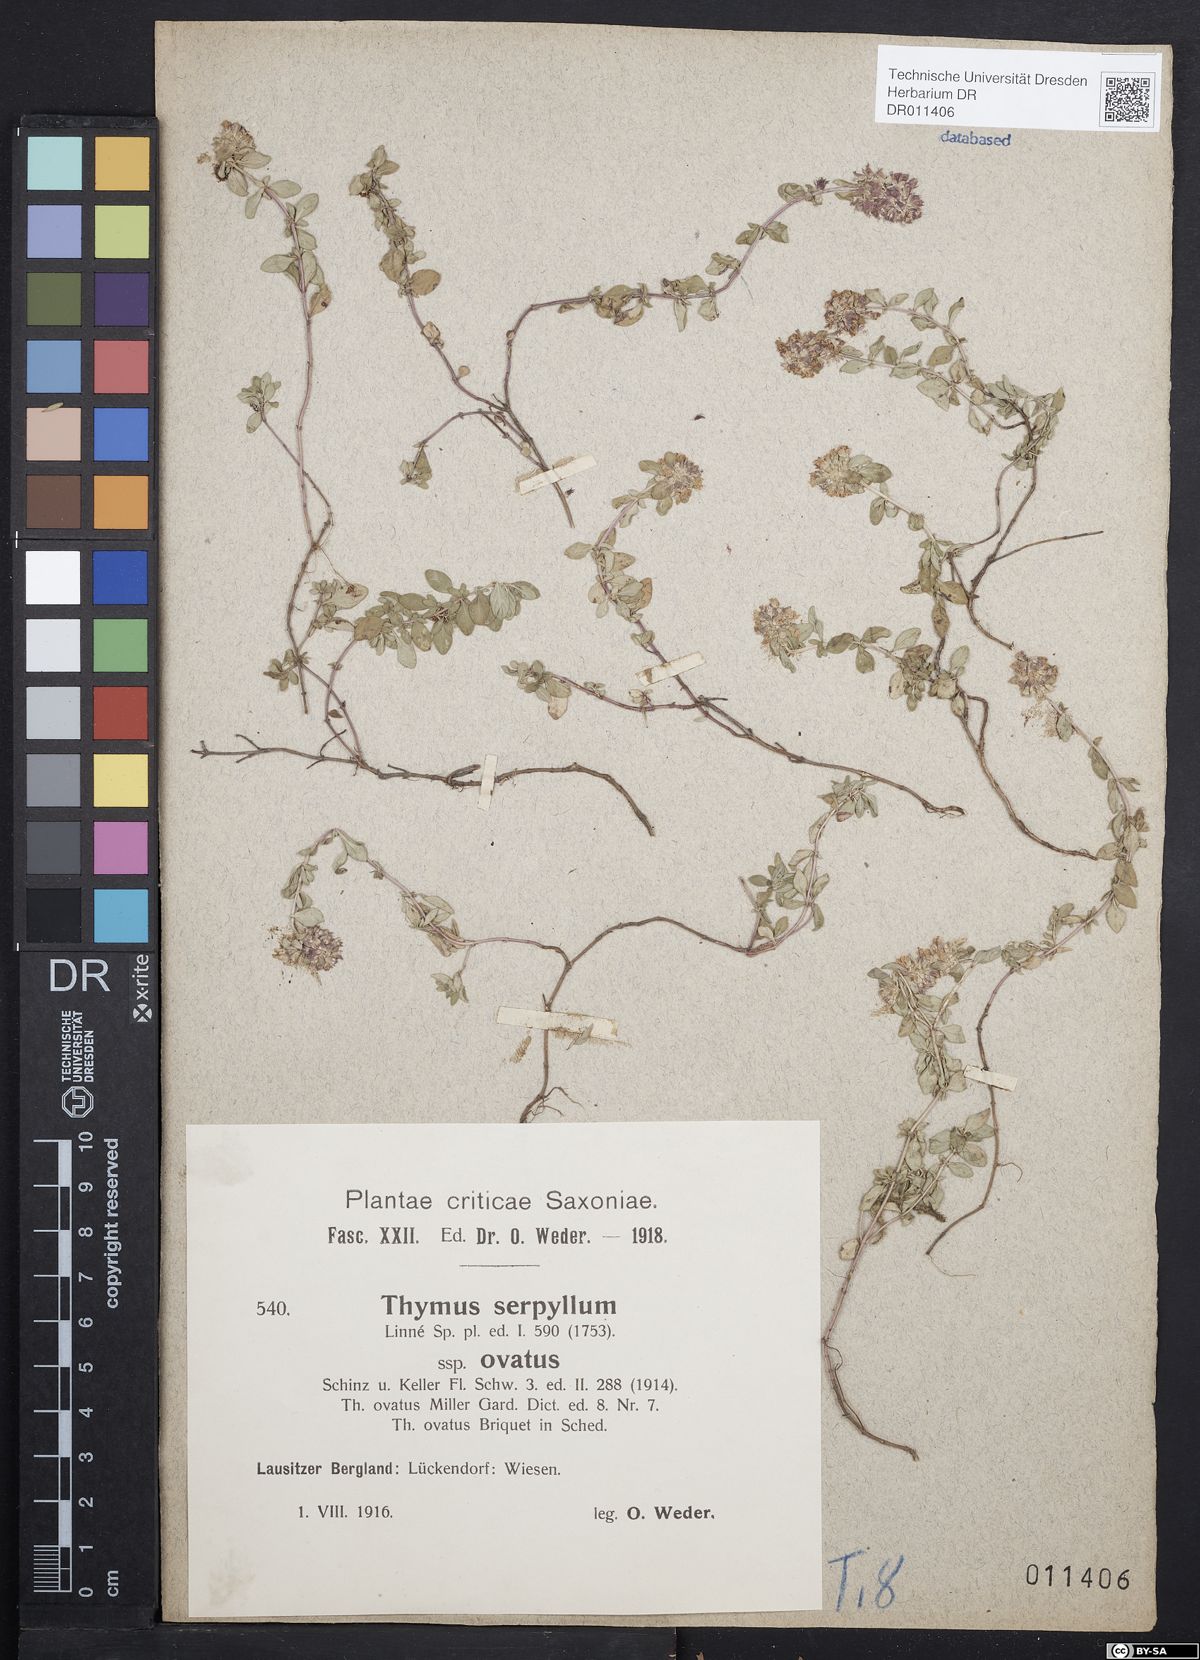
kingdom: Plantae
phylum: Tracheophyta
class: Magnoliopsida
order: Lamiales
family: Lamiaceae
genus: Thymus
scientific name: Thymus pulegioides
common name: Large thyme
